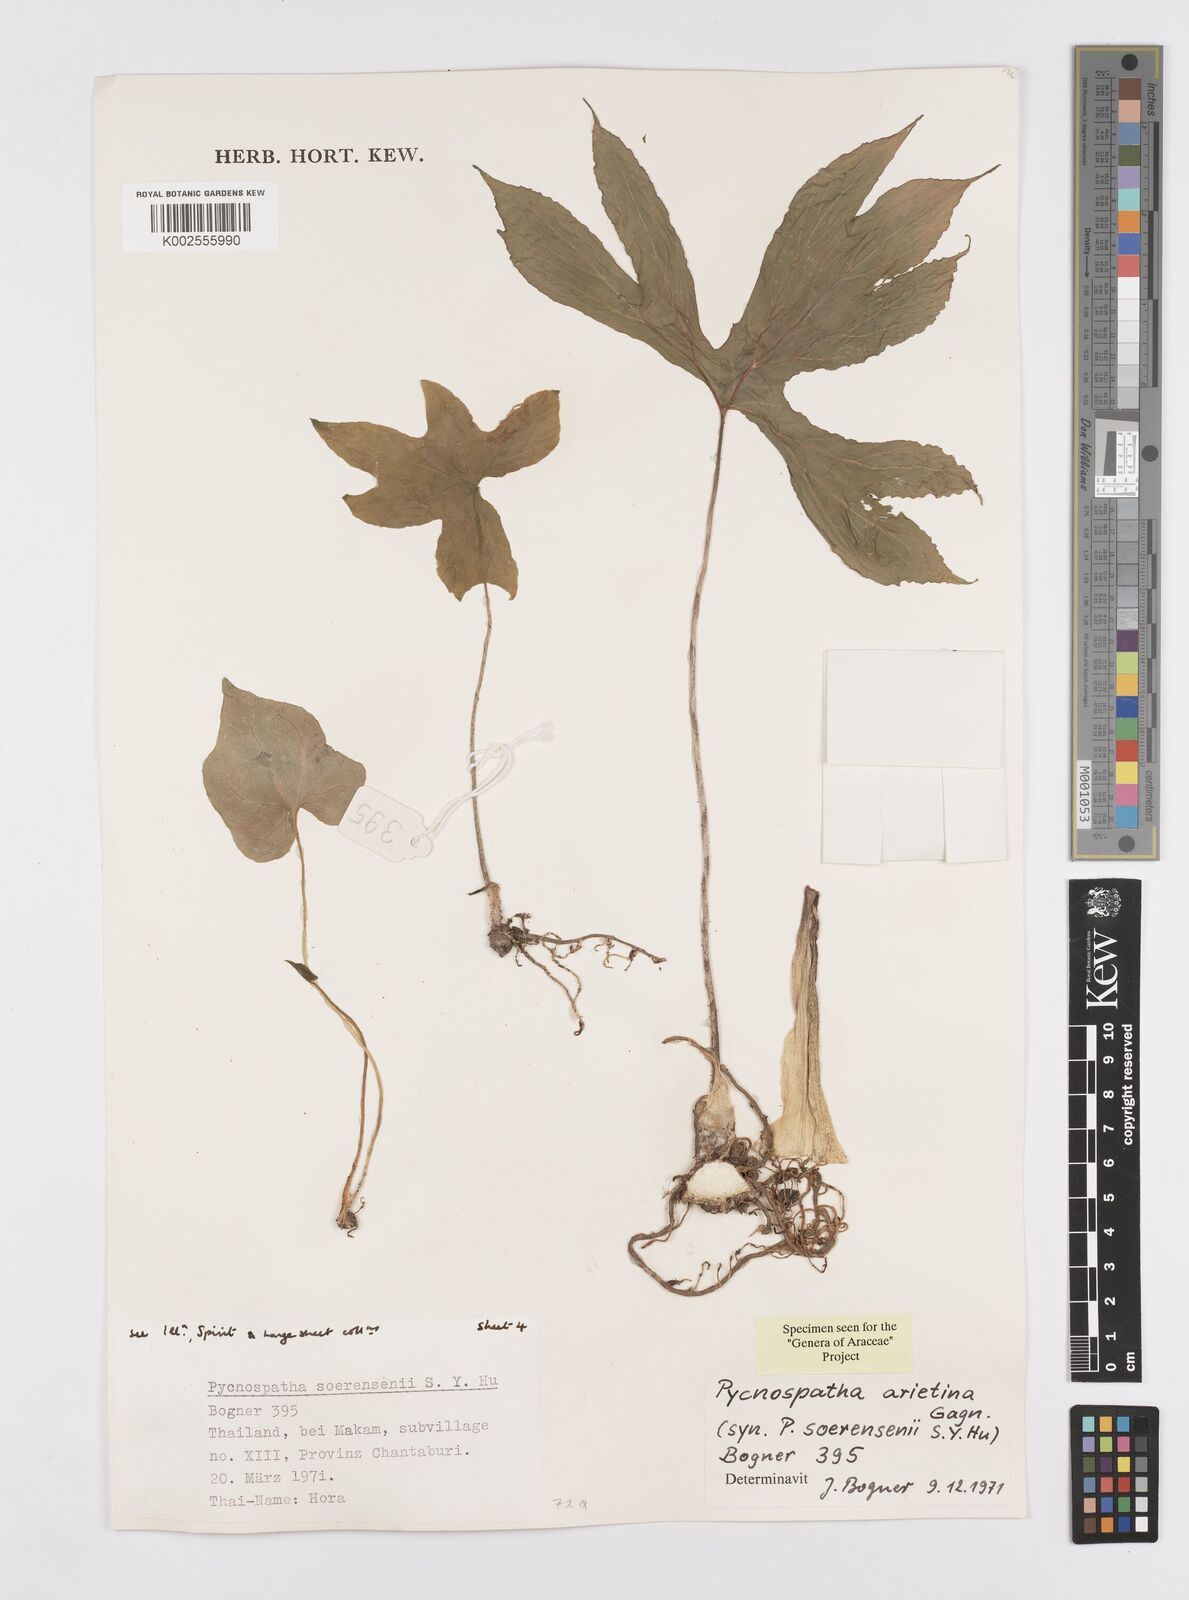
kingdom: Plantae
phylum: Tracheophyta
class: Liliopsida
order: Alismatales
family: Araceae
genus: Pycnospatha
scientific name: Pycnospatha arietina
